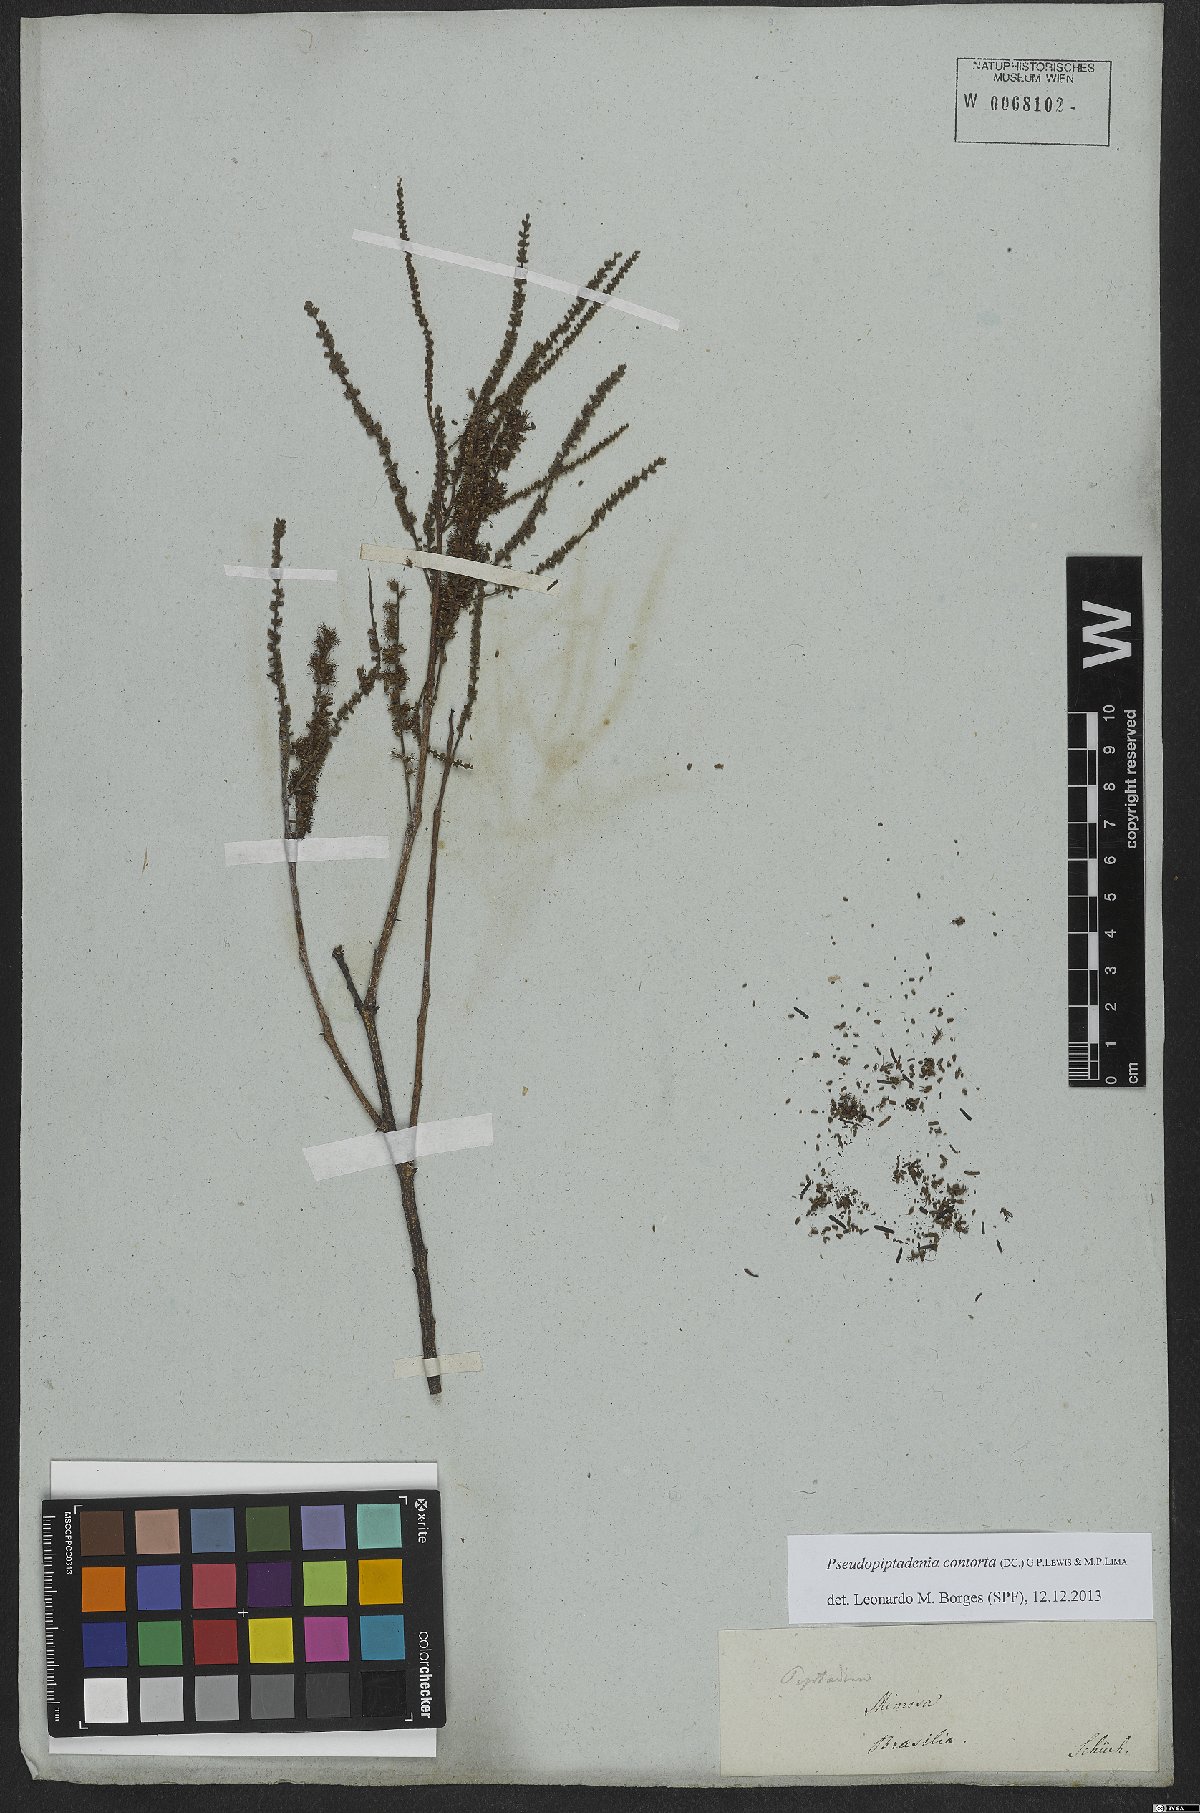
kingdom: Plantae
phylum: Tracheophyta
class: Magnoliopsida
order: Fabales
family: Fabaceae
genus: Pseudopiptadenia
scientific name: Pseudopiptadenia contorta
